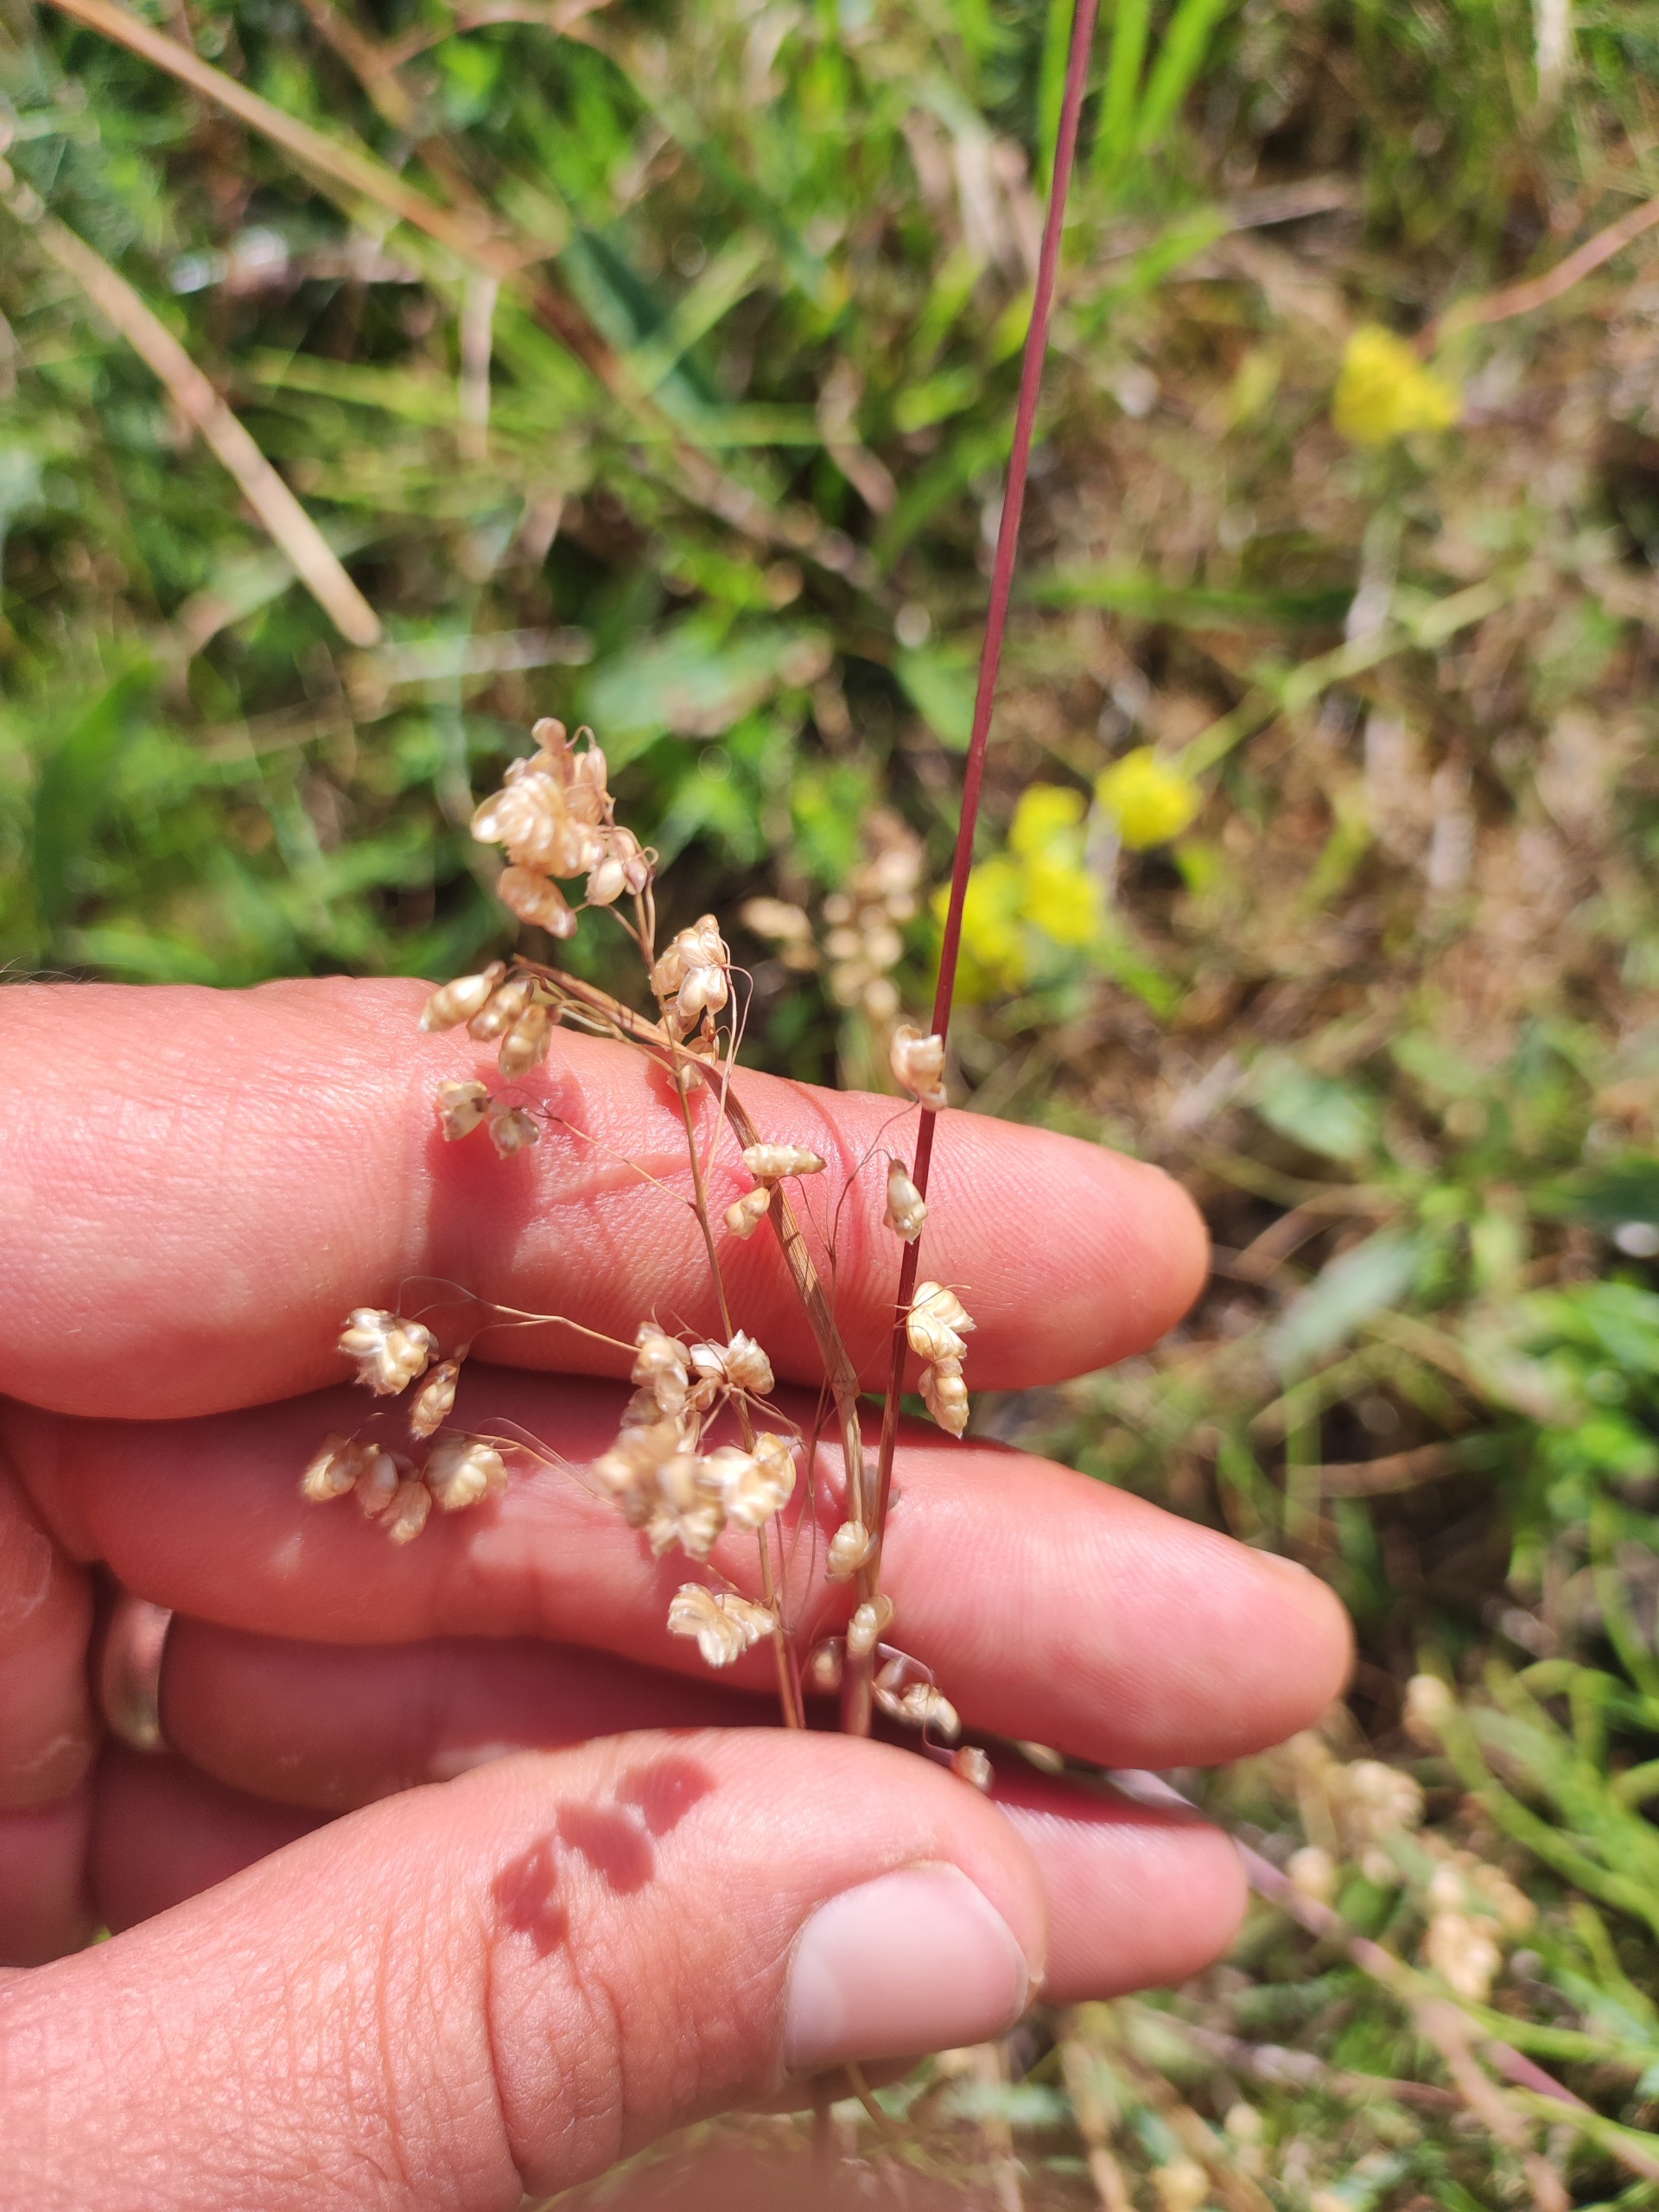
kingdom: Plantae
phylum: Tracheophyta
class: Liliopsida
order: Poales
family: Poaceae
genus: Briza
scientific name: Briza media
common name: Hjertegræs
